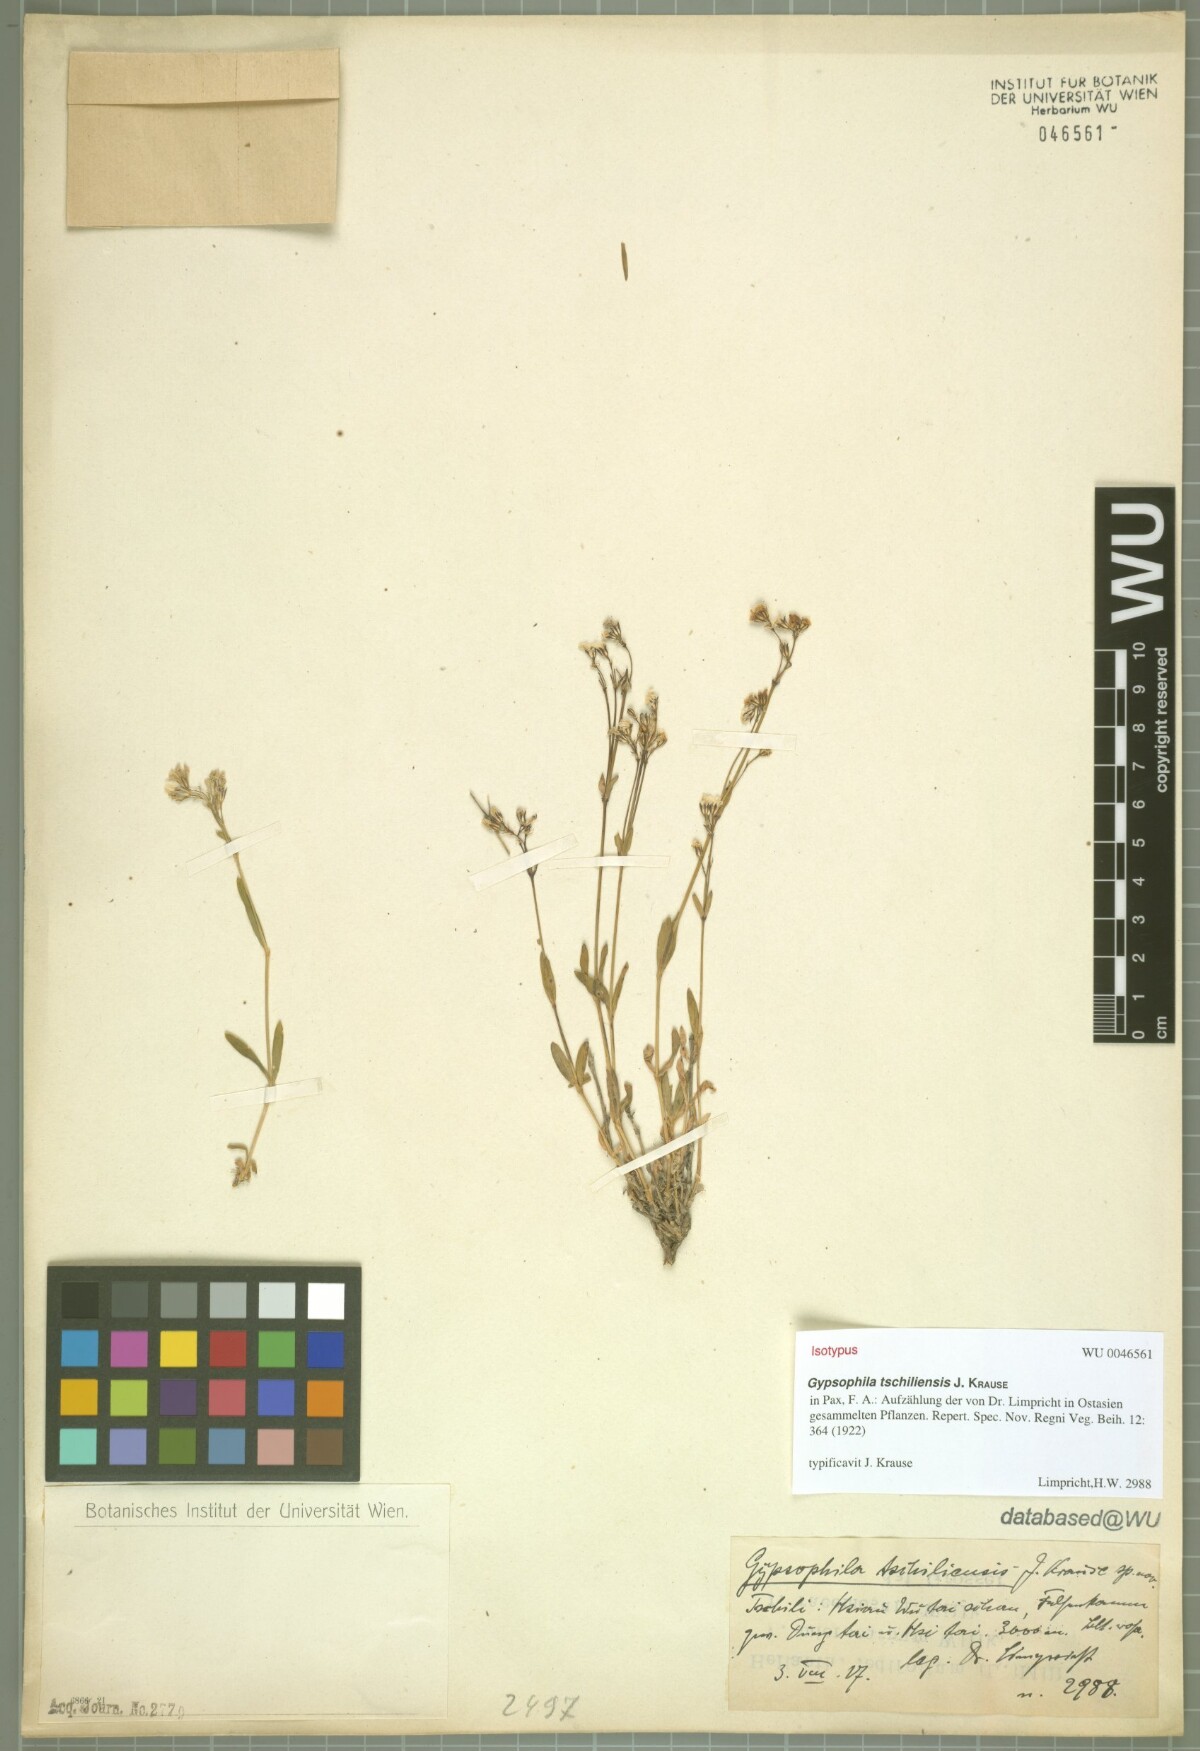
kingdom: Plantae
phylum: Tracheophyta
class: Magnoliopsida
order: Caryophyllales
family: Caryophyllaceae
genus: Gypsophila
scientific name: Gypsophila tschiliensis
